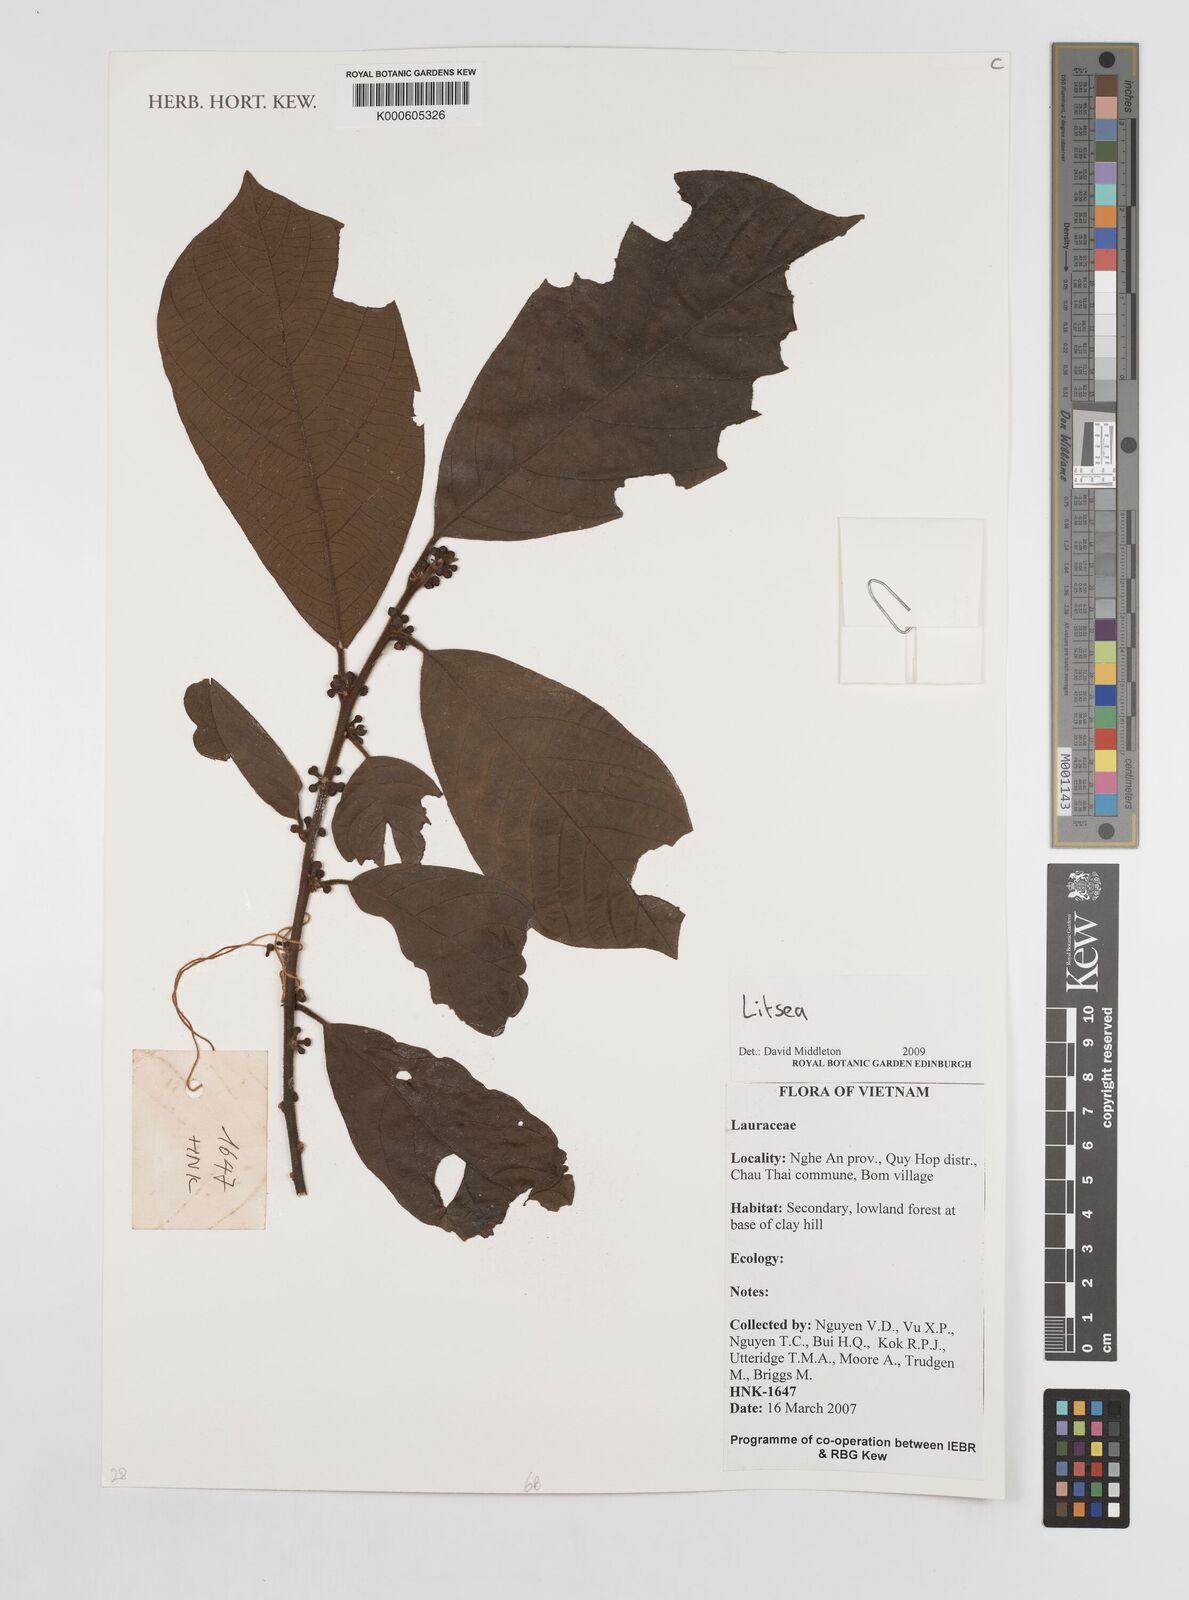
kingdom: Plantae
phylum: Tracheophyta
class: Magnoliopsida
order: Laurales
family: Lauraceae
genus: Litsea
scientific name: Litsea
